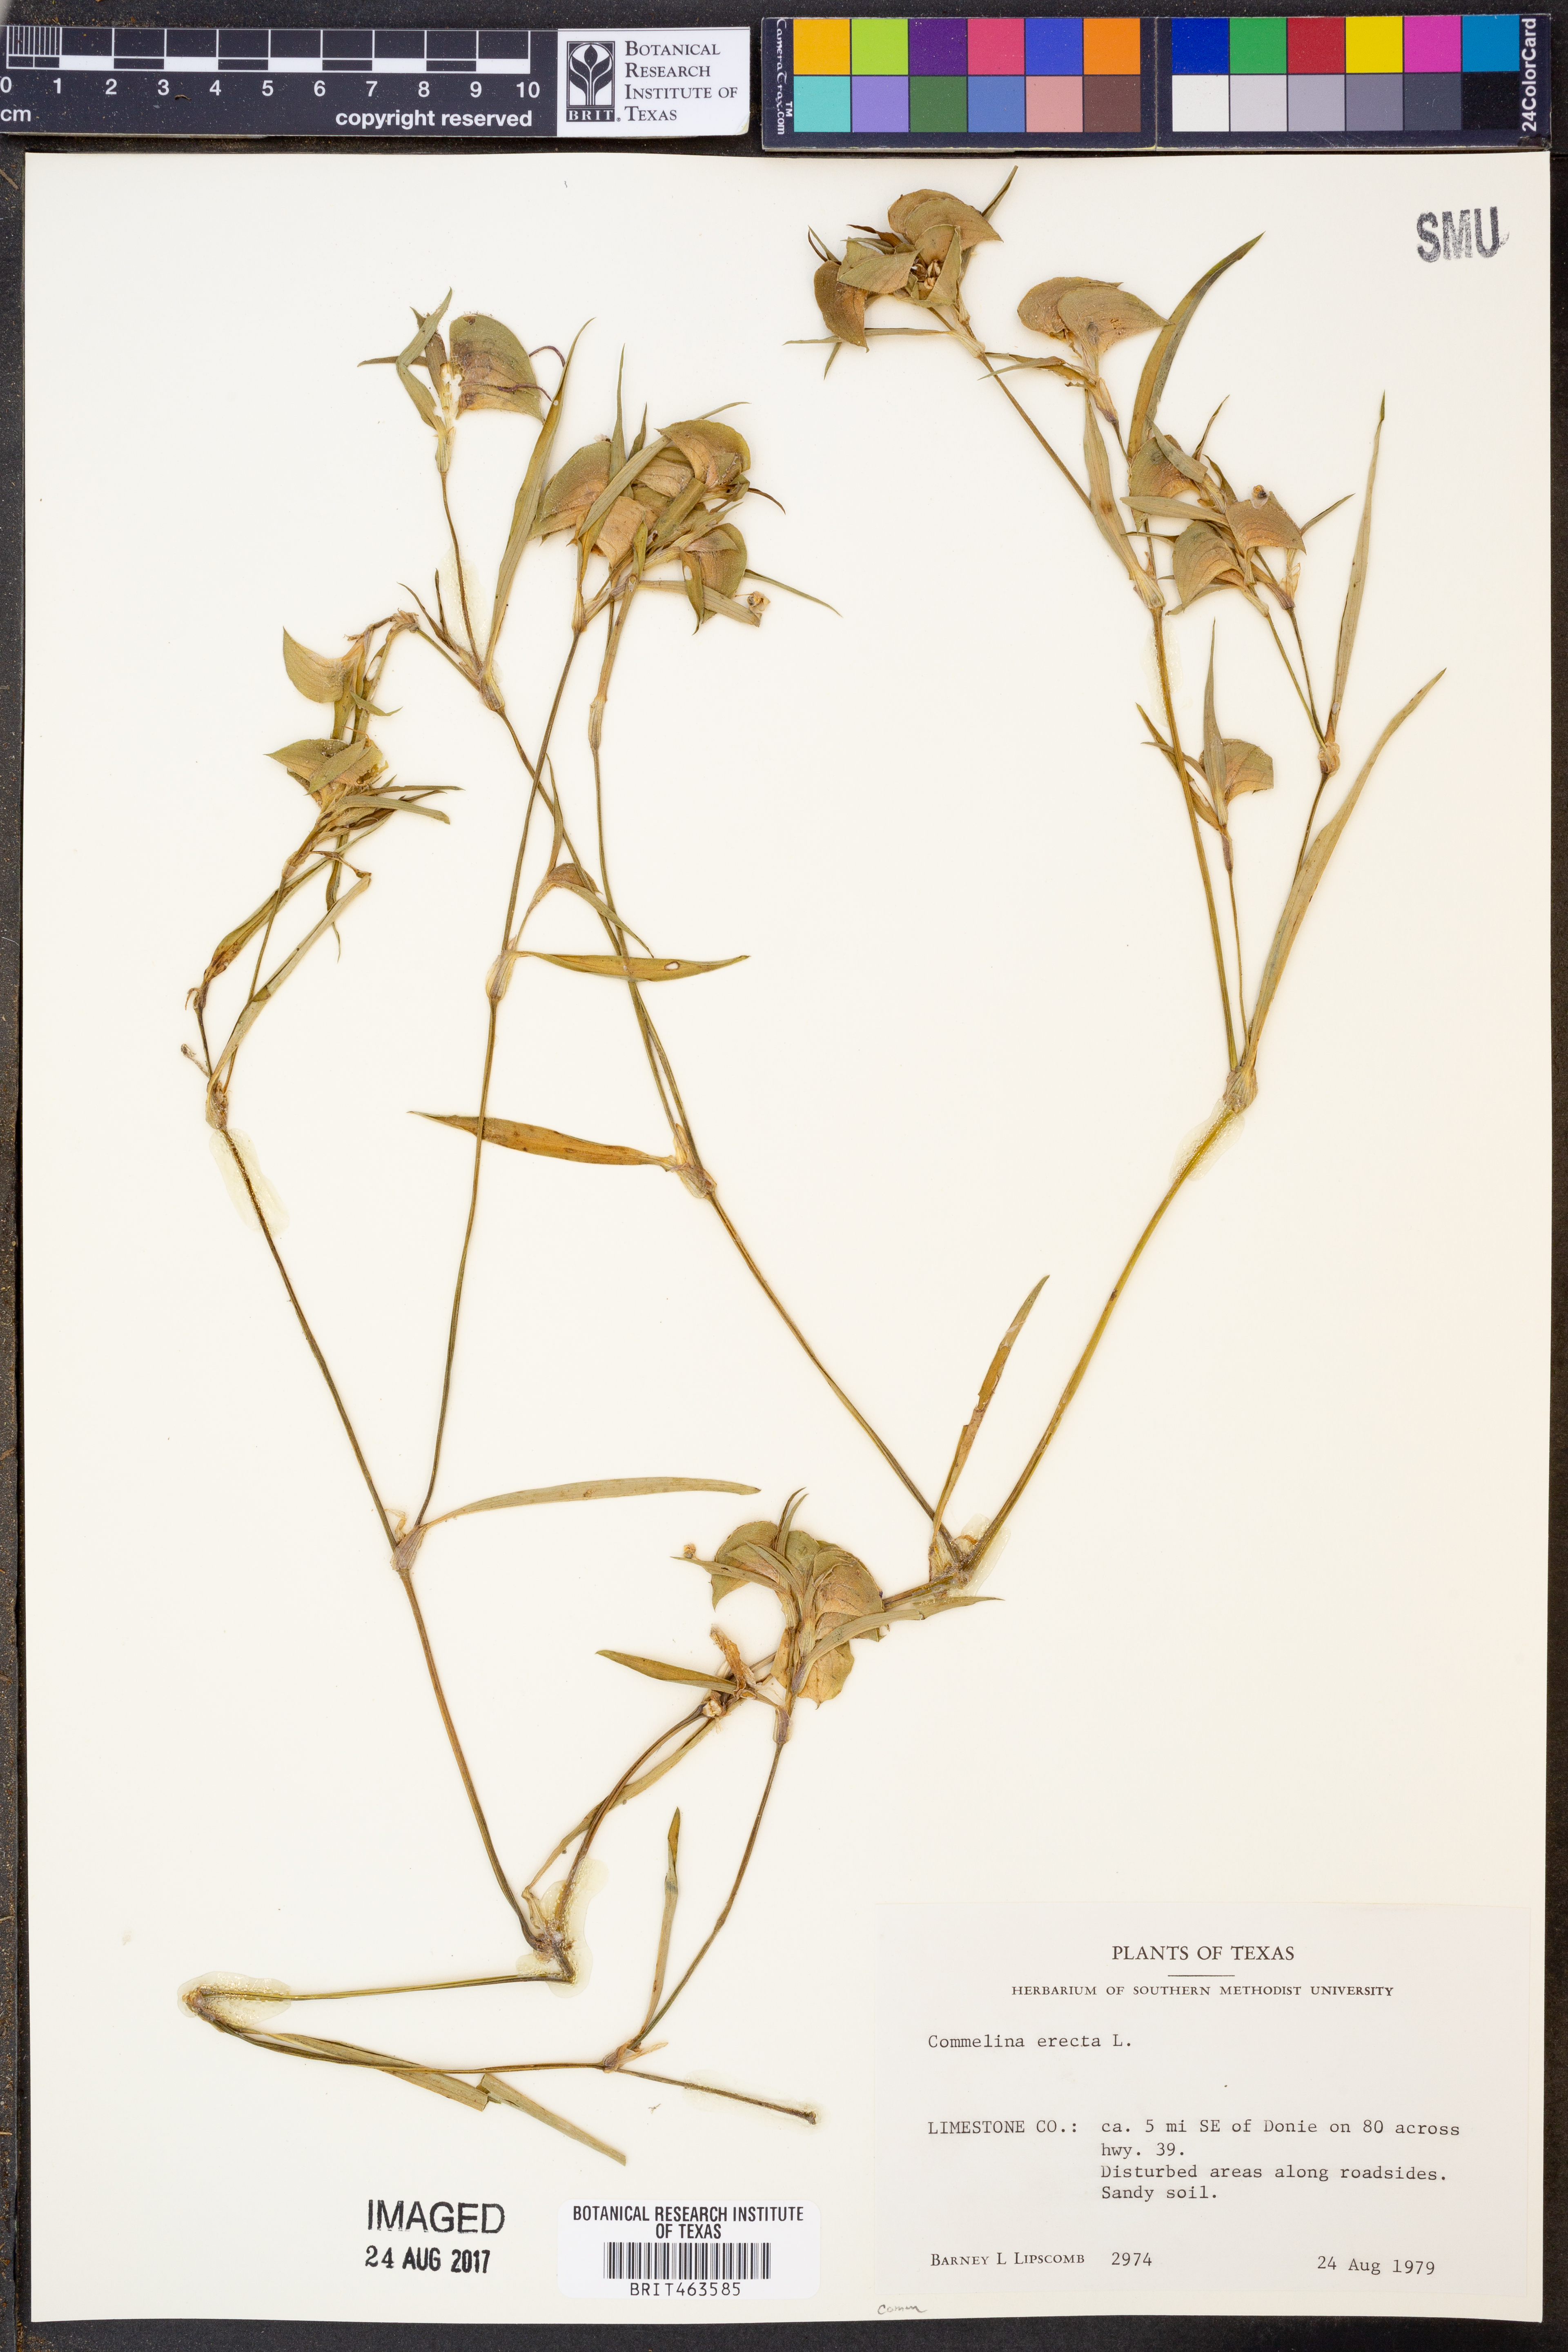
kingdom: Plantae
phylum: Tracheophyta
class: Liliopsida
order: Commelinales
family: Commelinaceae
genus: Commelina
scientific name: Commelina erecta
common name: Blousel blommetjie
